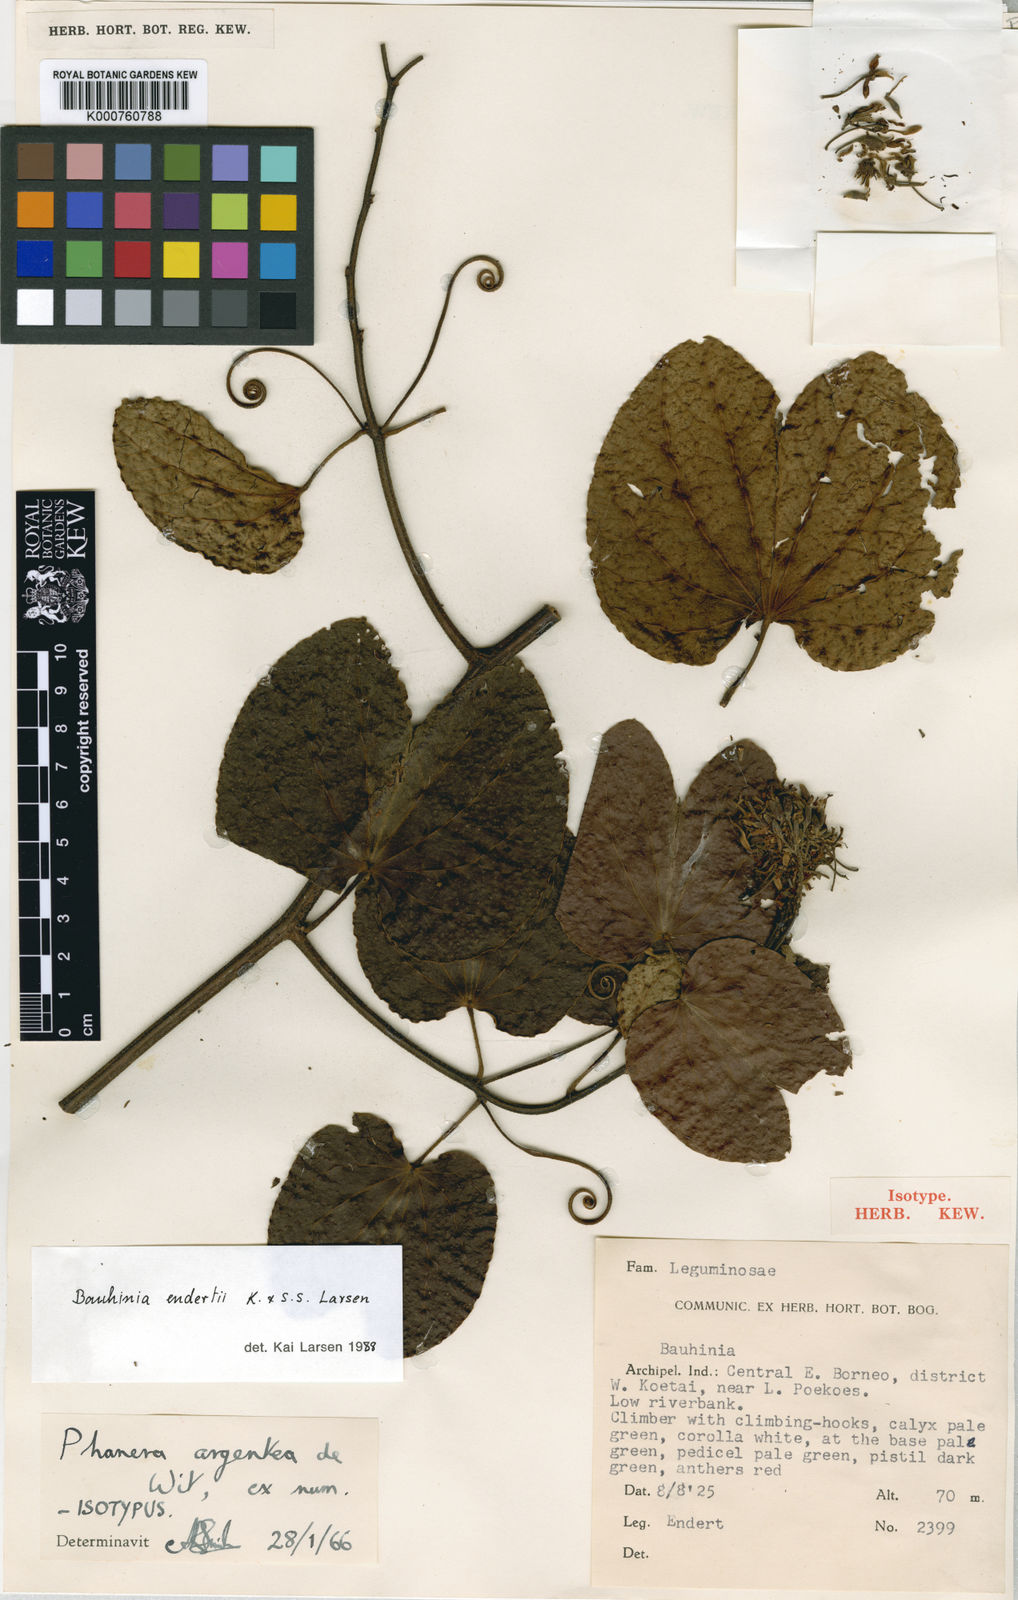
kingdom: Plantae
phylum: Tracheophyta
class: Magnoliopsida
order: Fabales
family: Fabaceae
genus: Phanera
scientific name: Phanera argentea
